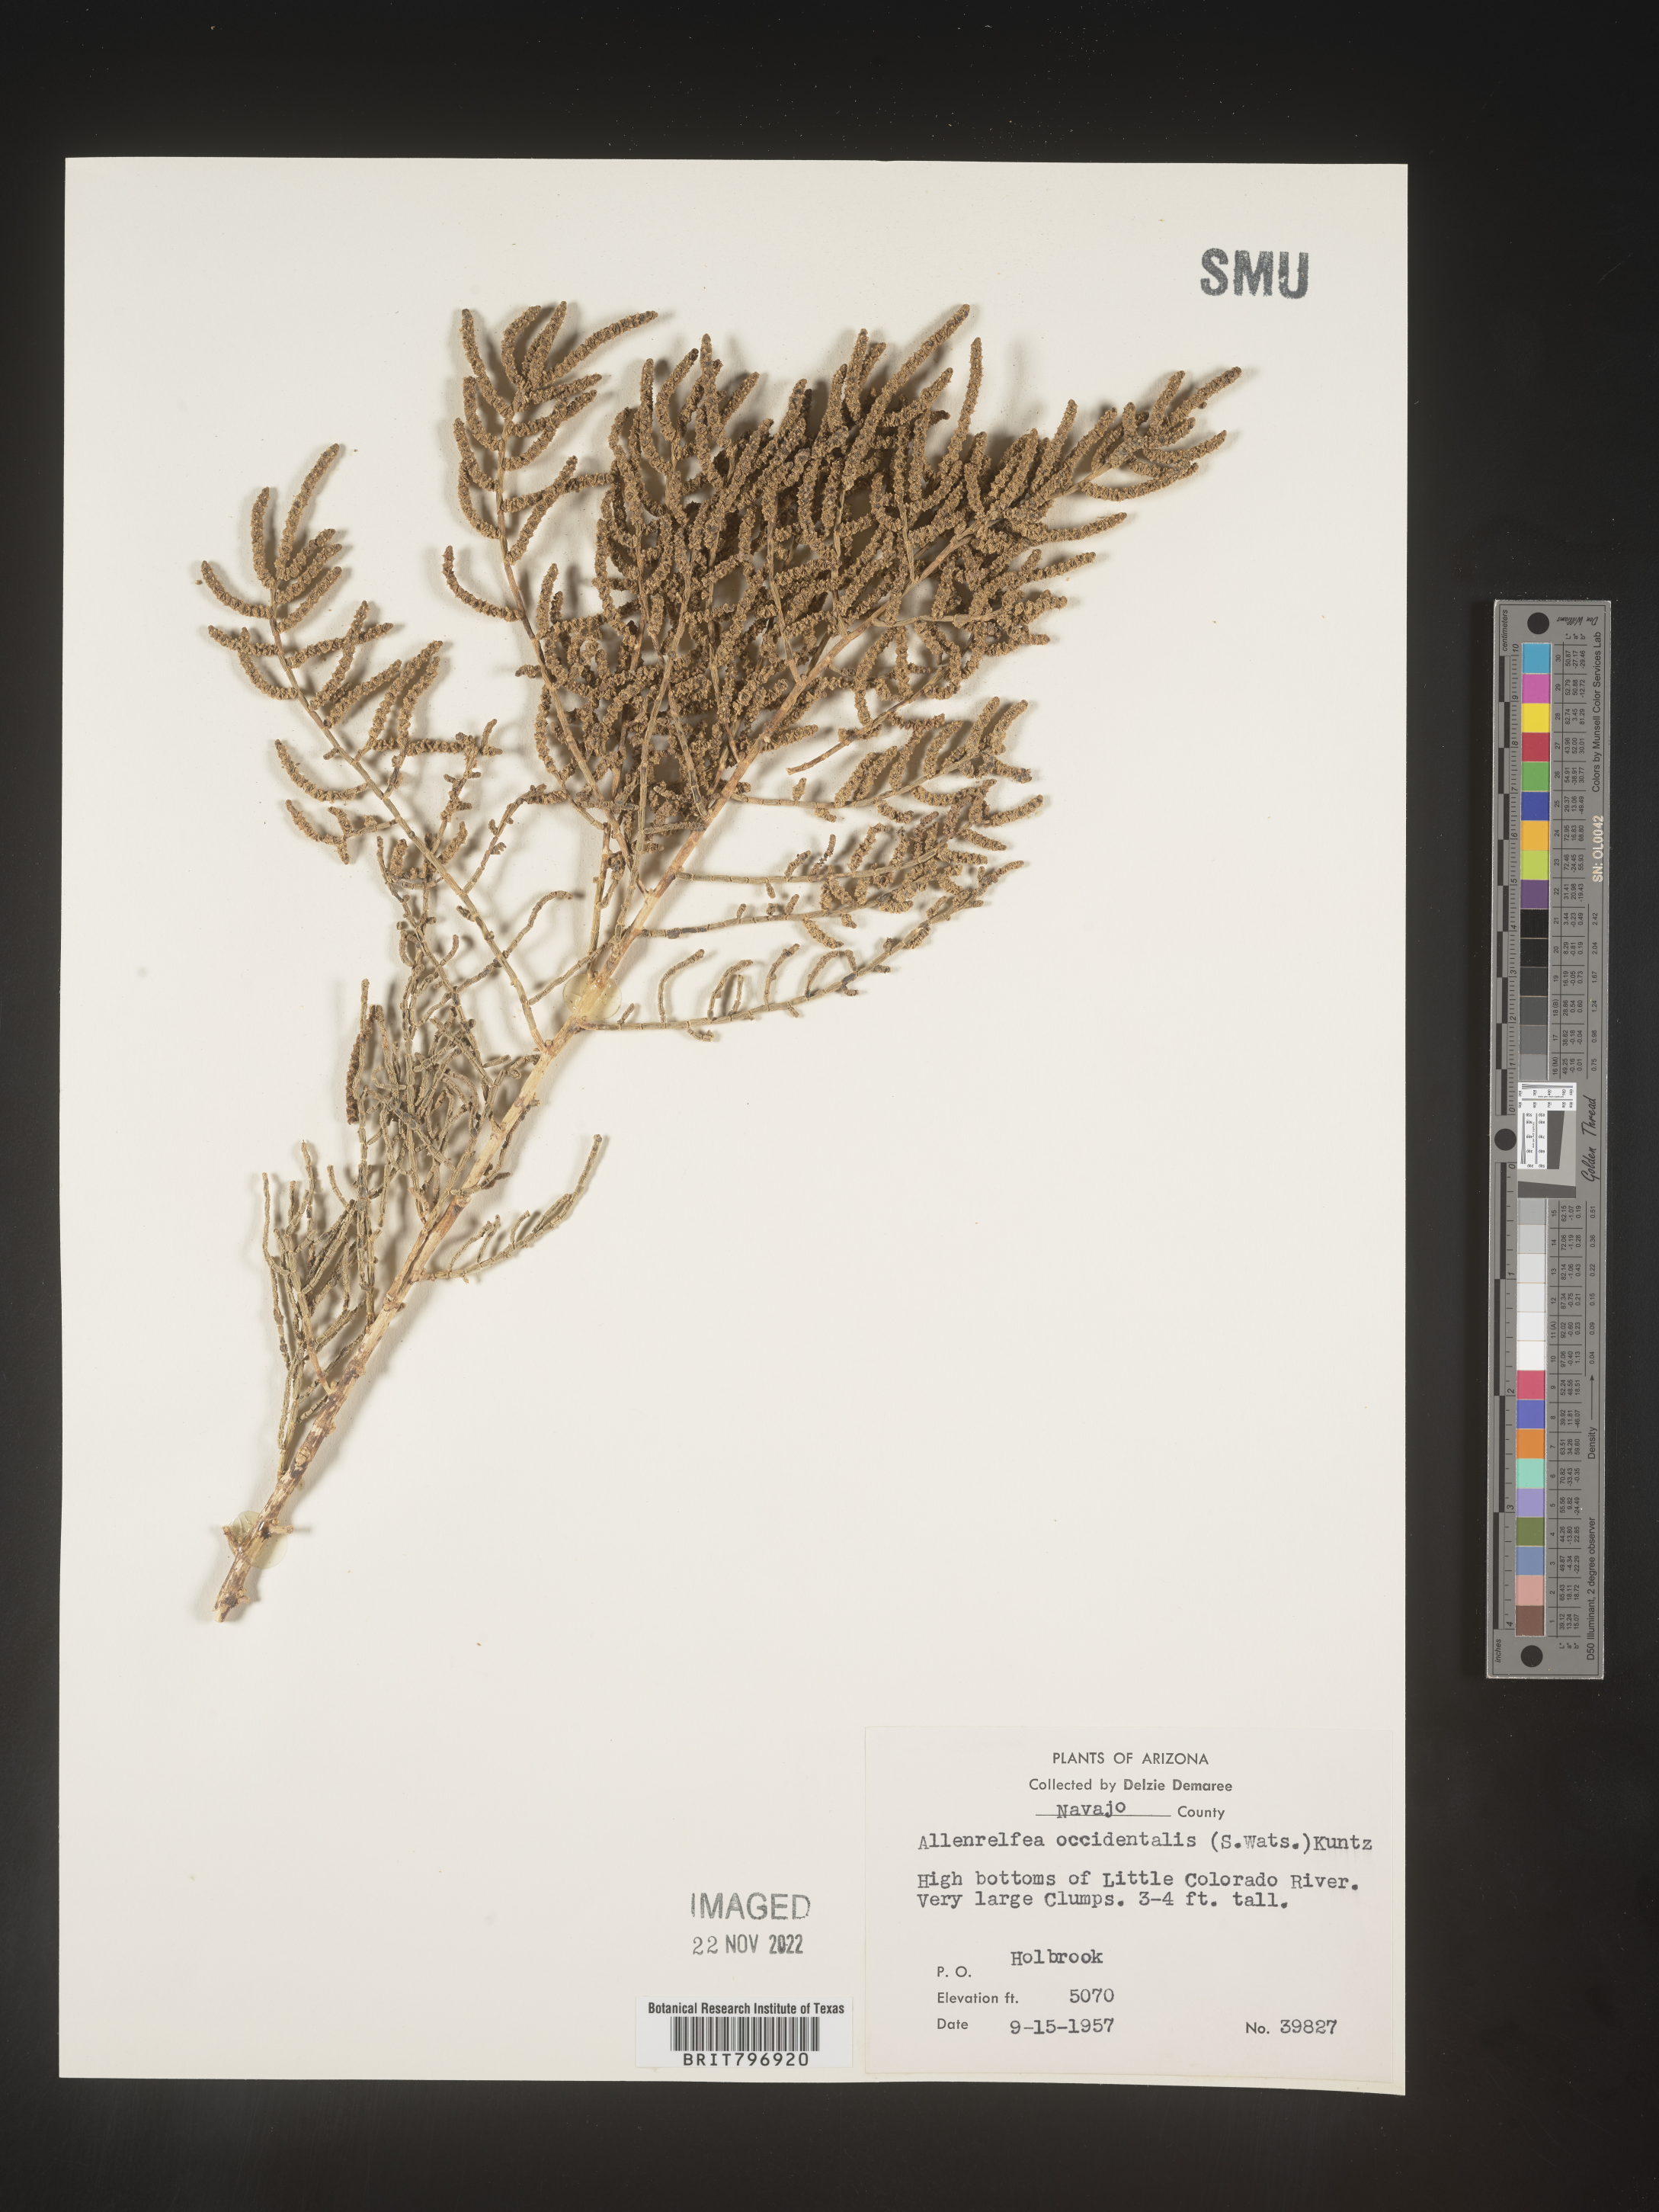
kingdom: Plantae
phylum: Tracheophyta
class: Magnoliopsida
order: Caryophyllales
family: Amaranthaceae
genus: Allenrolfea
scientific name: Allenrolfea
